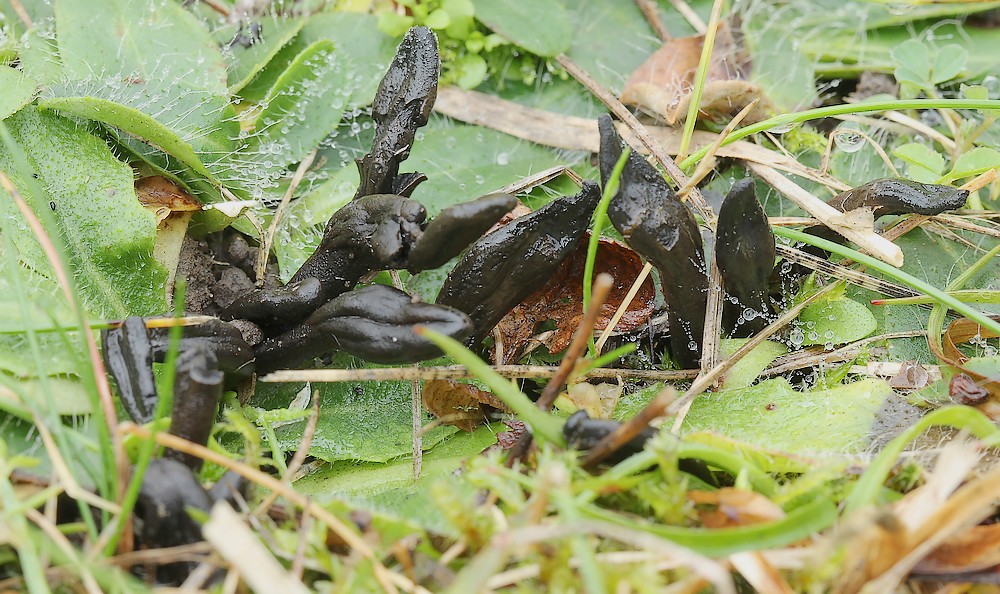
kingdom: Fungi
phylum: Ascomycota
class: Geoglossomycetes
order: Geoglossales
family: Geoglossaceae
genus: Geoglossum
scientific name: Geoglossum umbratile
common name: slank jordtunge
